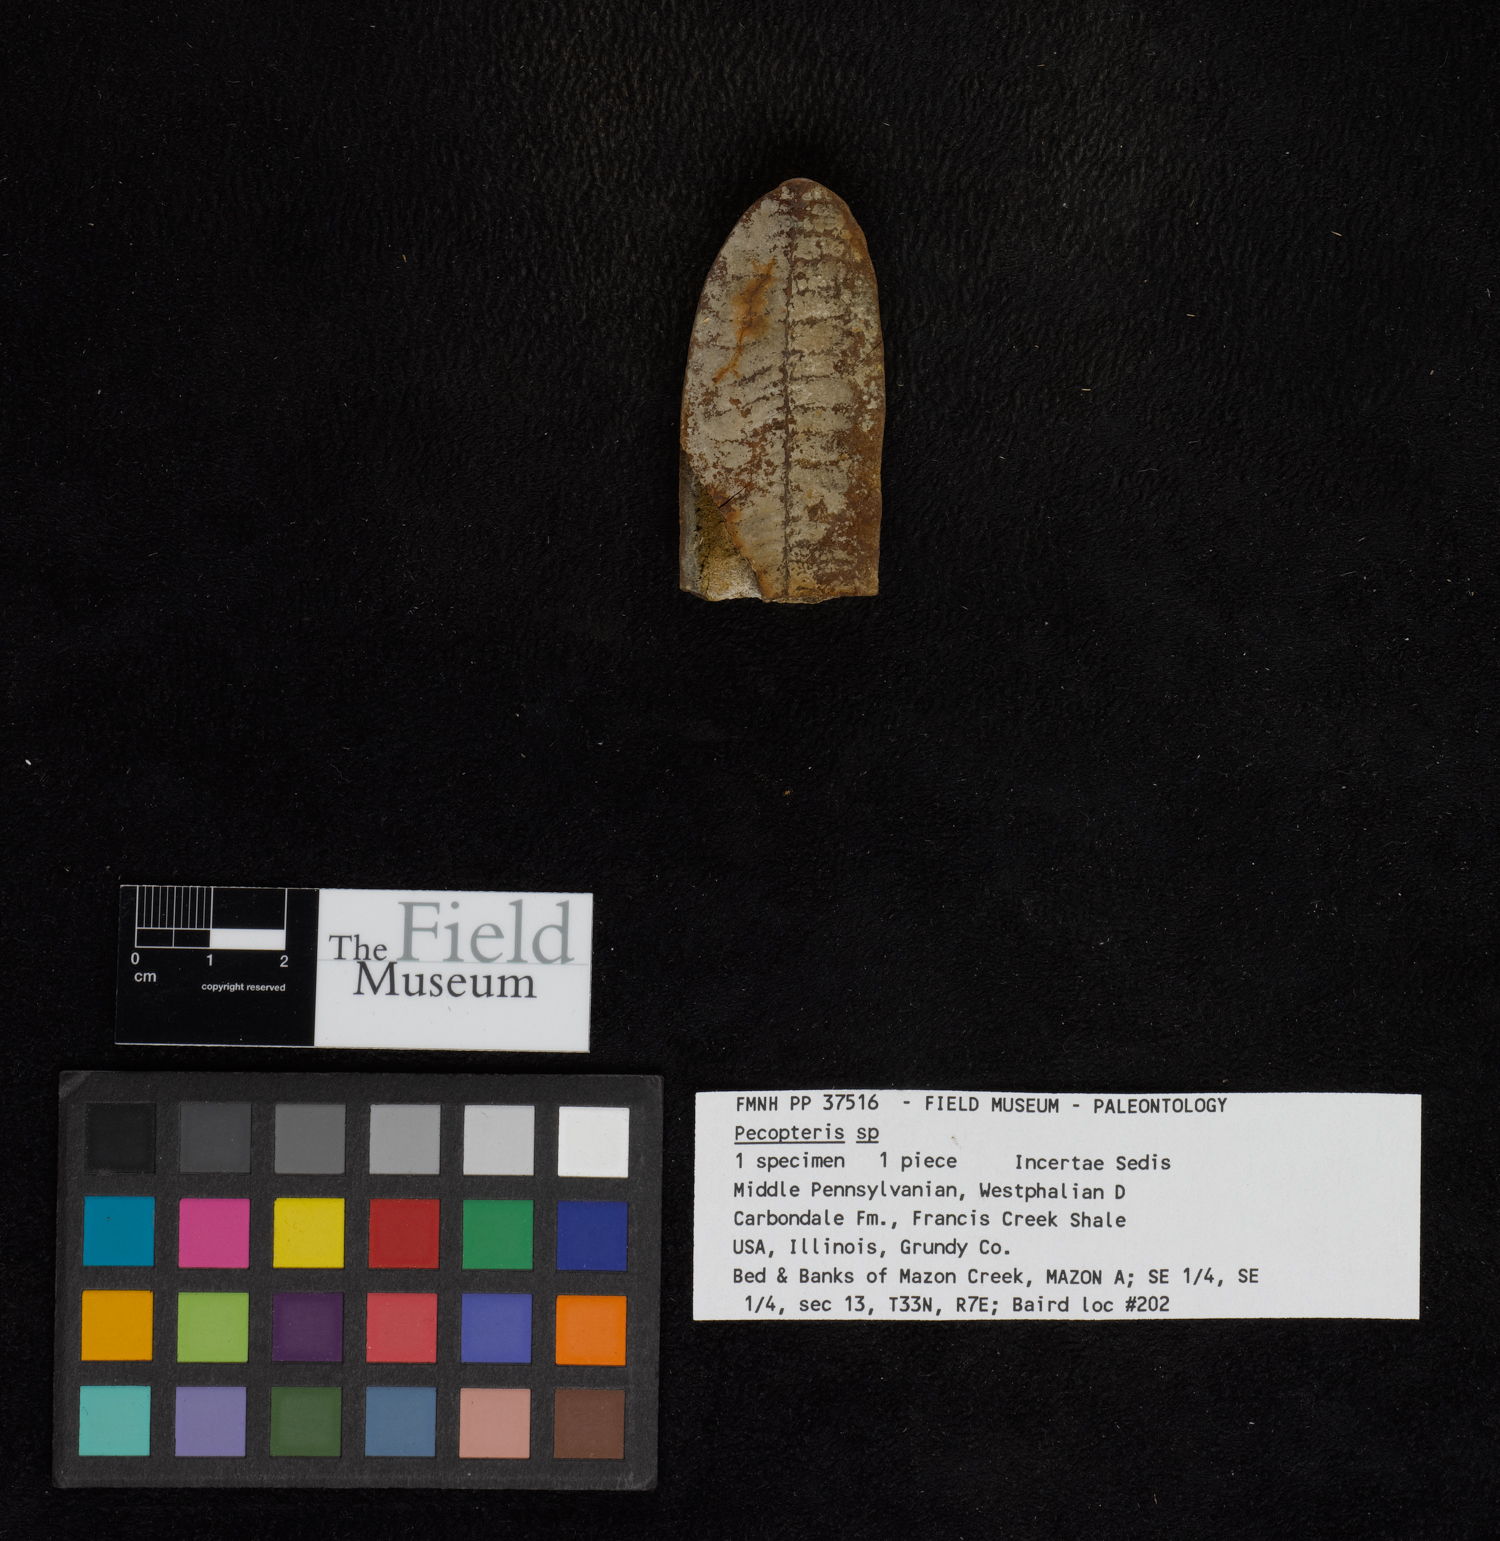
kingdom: Plantae
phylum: Tracheophyta
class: Polypodiopsida
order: Marattiales
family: Asterothecaceae
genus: Pecopteris
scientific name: Pecopteris
